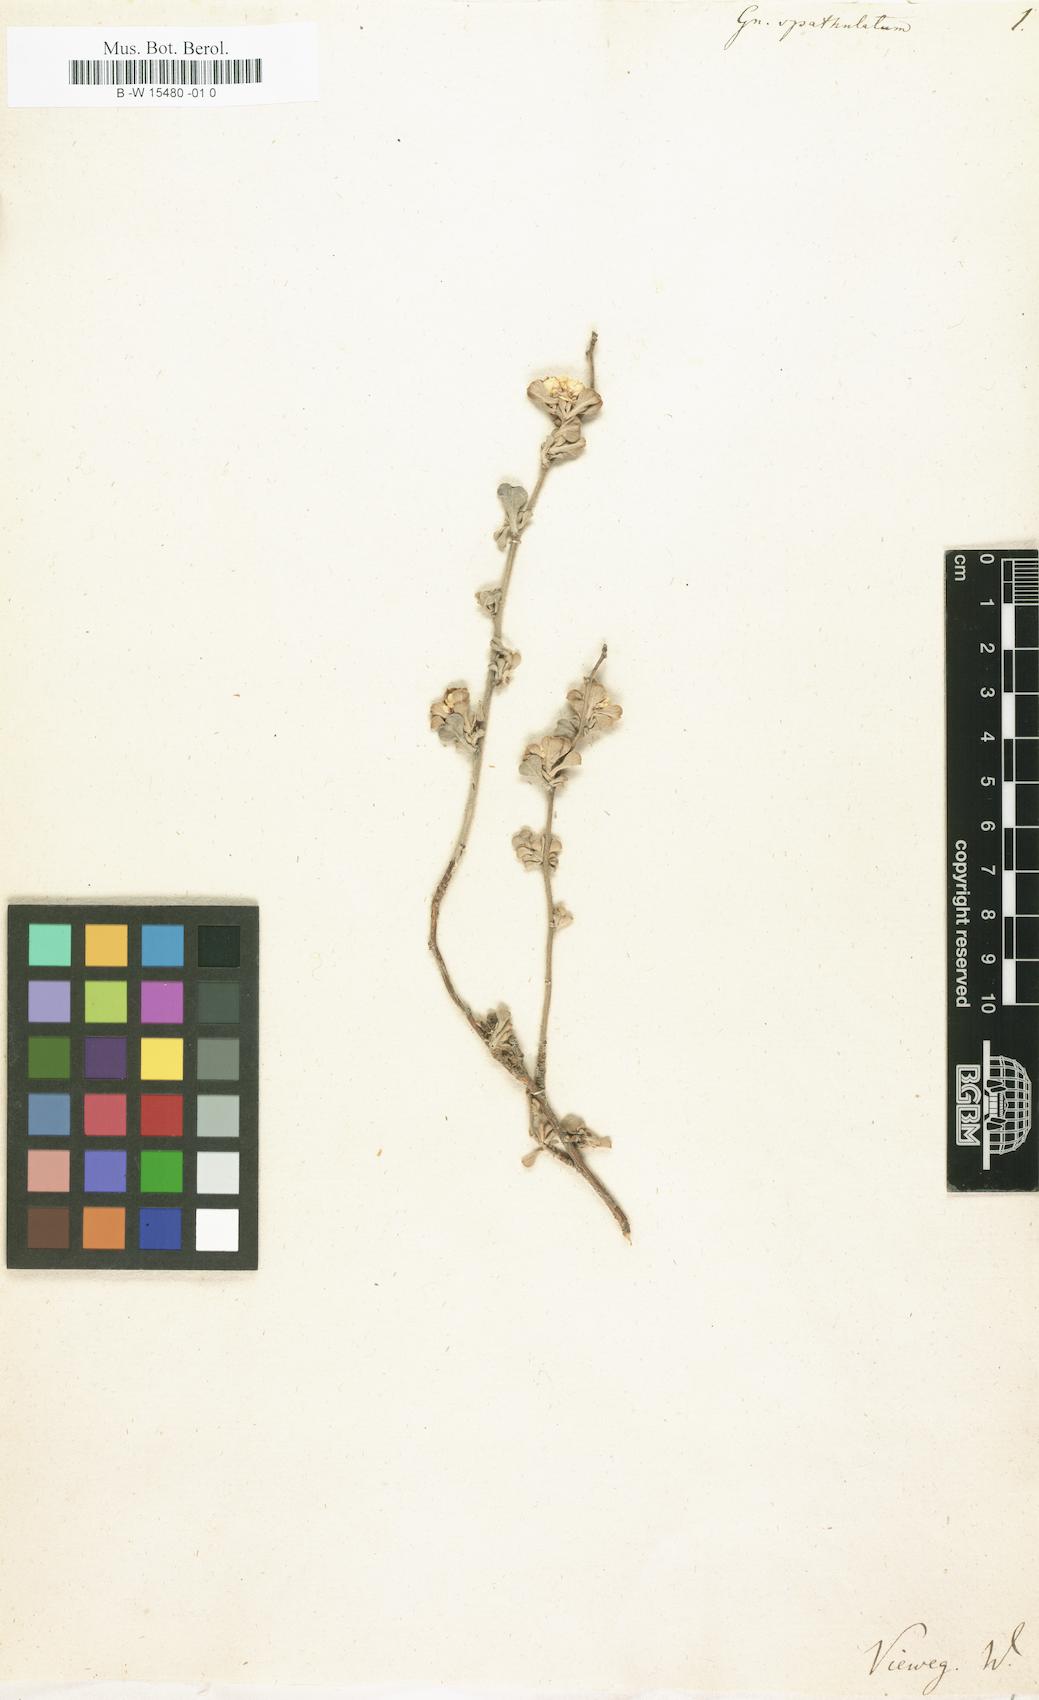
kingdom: Plantae
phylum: Tracheophyta
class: Magnoliopsida
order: Asterales
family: Asteraceae
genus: Helichrysum
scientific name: Helichrysum crispum
